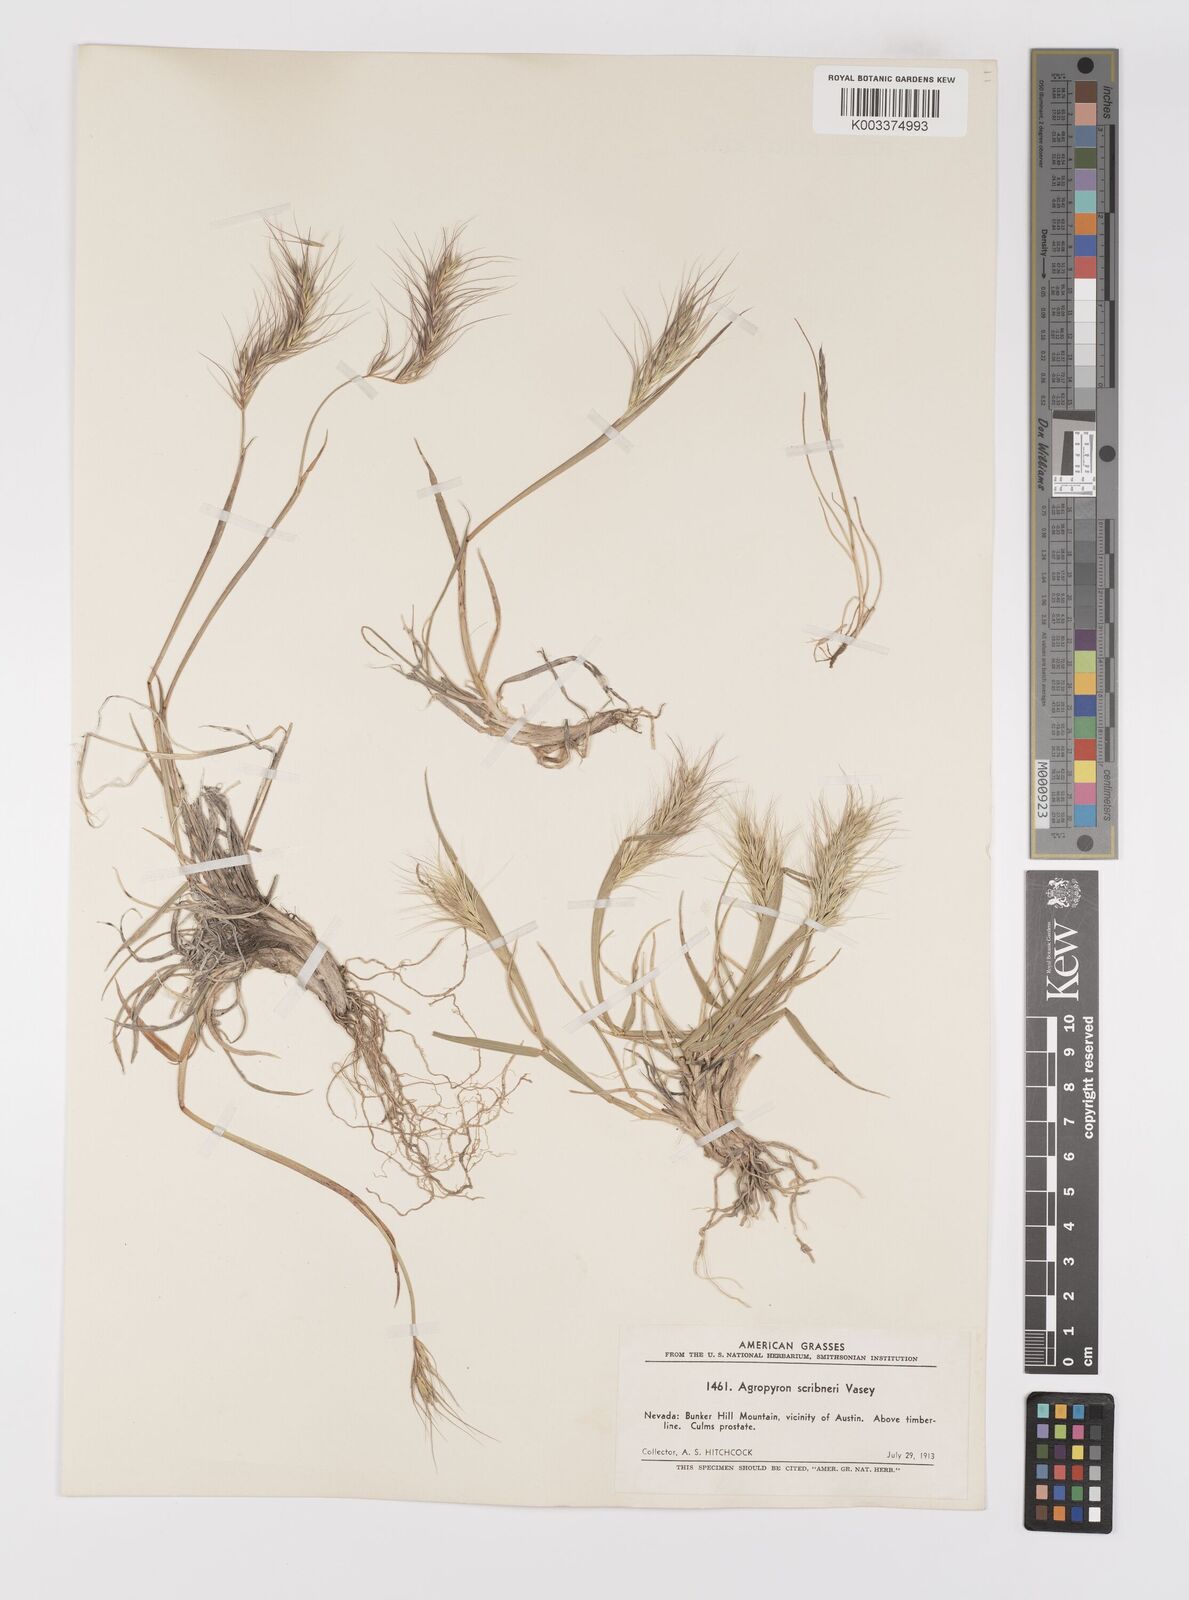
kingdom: Plantae
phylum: Tracheophyta
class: Liliopsida
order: Poales
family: Poaceae
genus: Elymus
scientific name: Elymus scribneri
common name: Scribner's wheatgrass
